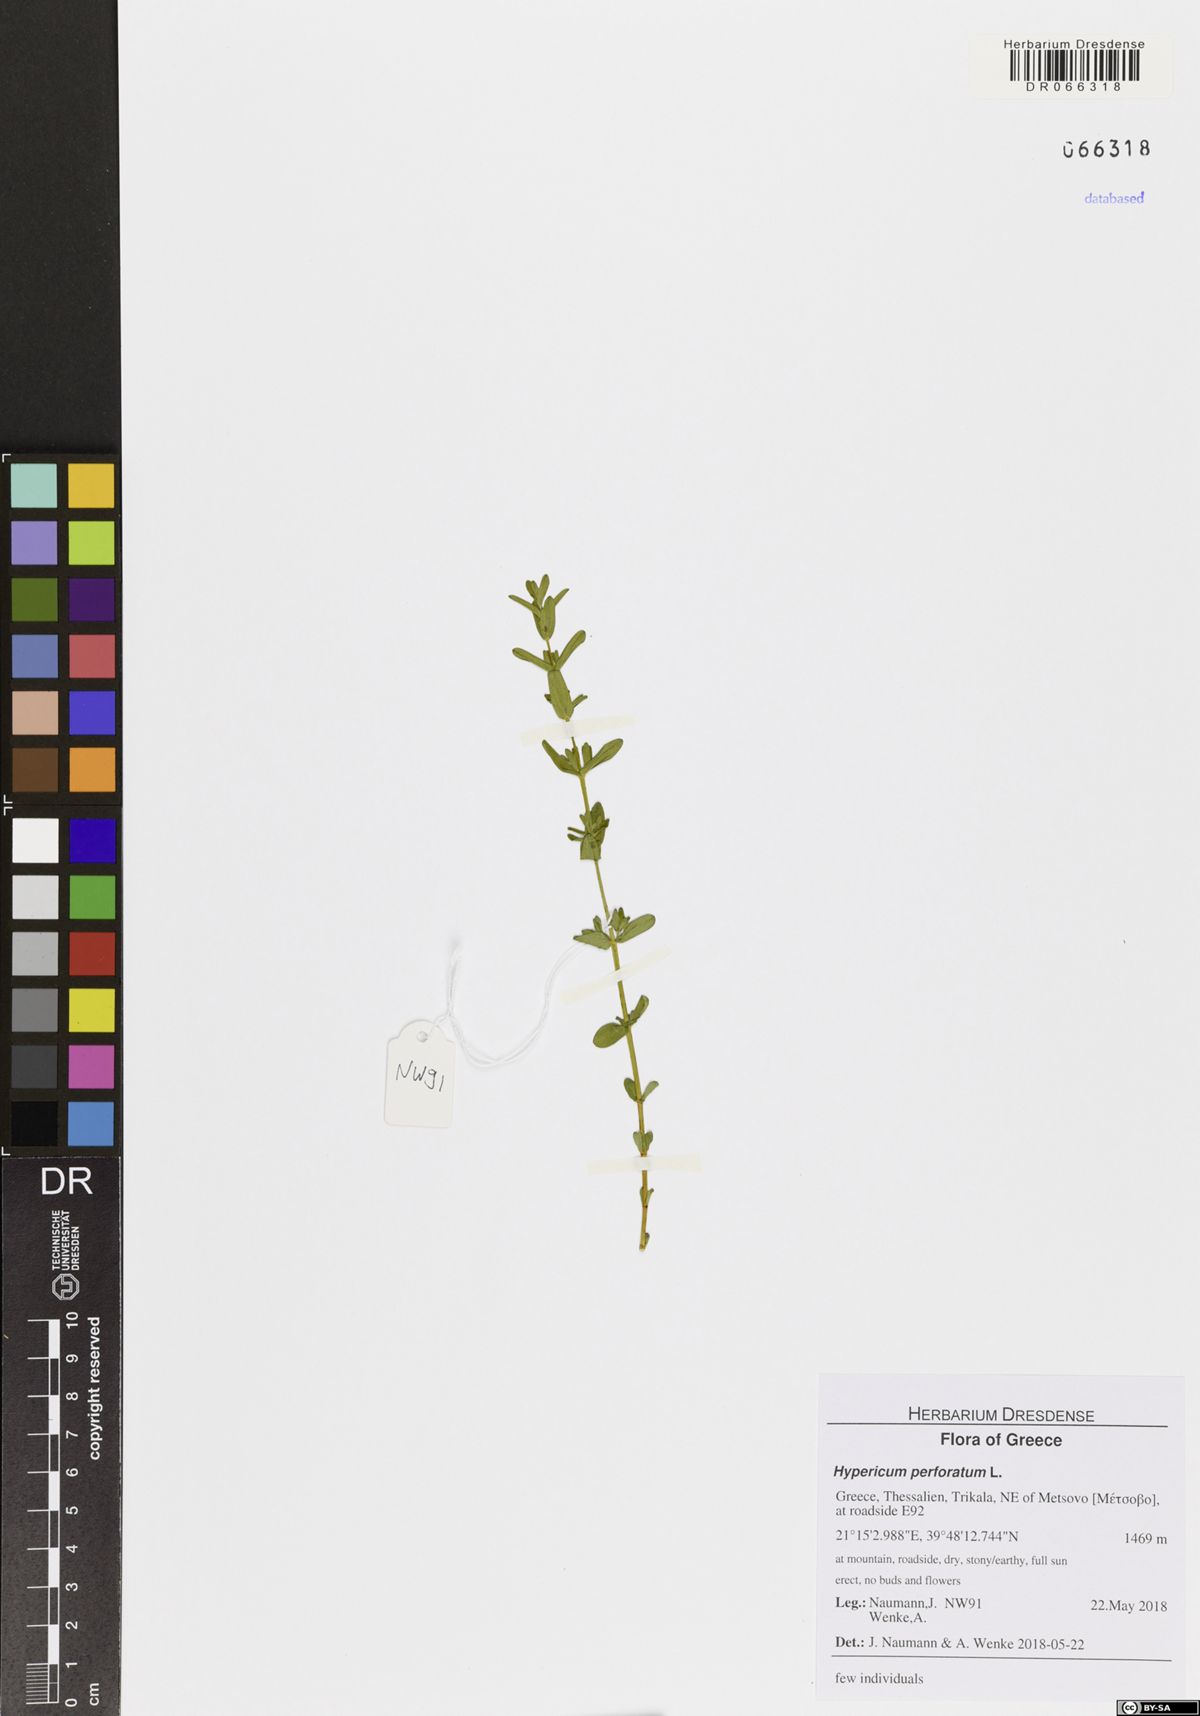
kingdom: Plantae
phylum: Tracheophyta
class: Magnoliopsida
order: Malpighiales
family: Hypericaceae
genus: Hypericum
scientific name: Hypericum perforatum
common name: Common st. johnswort
